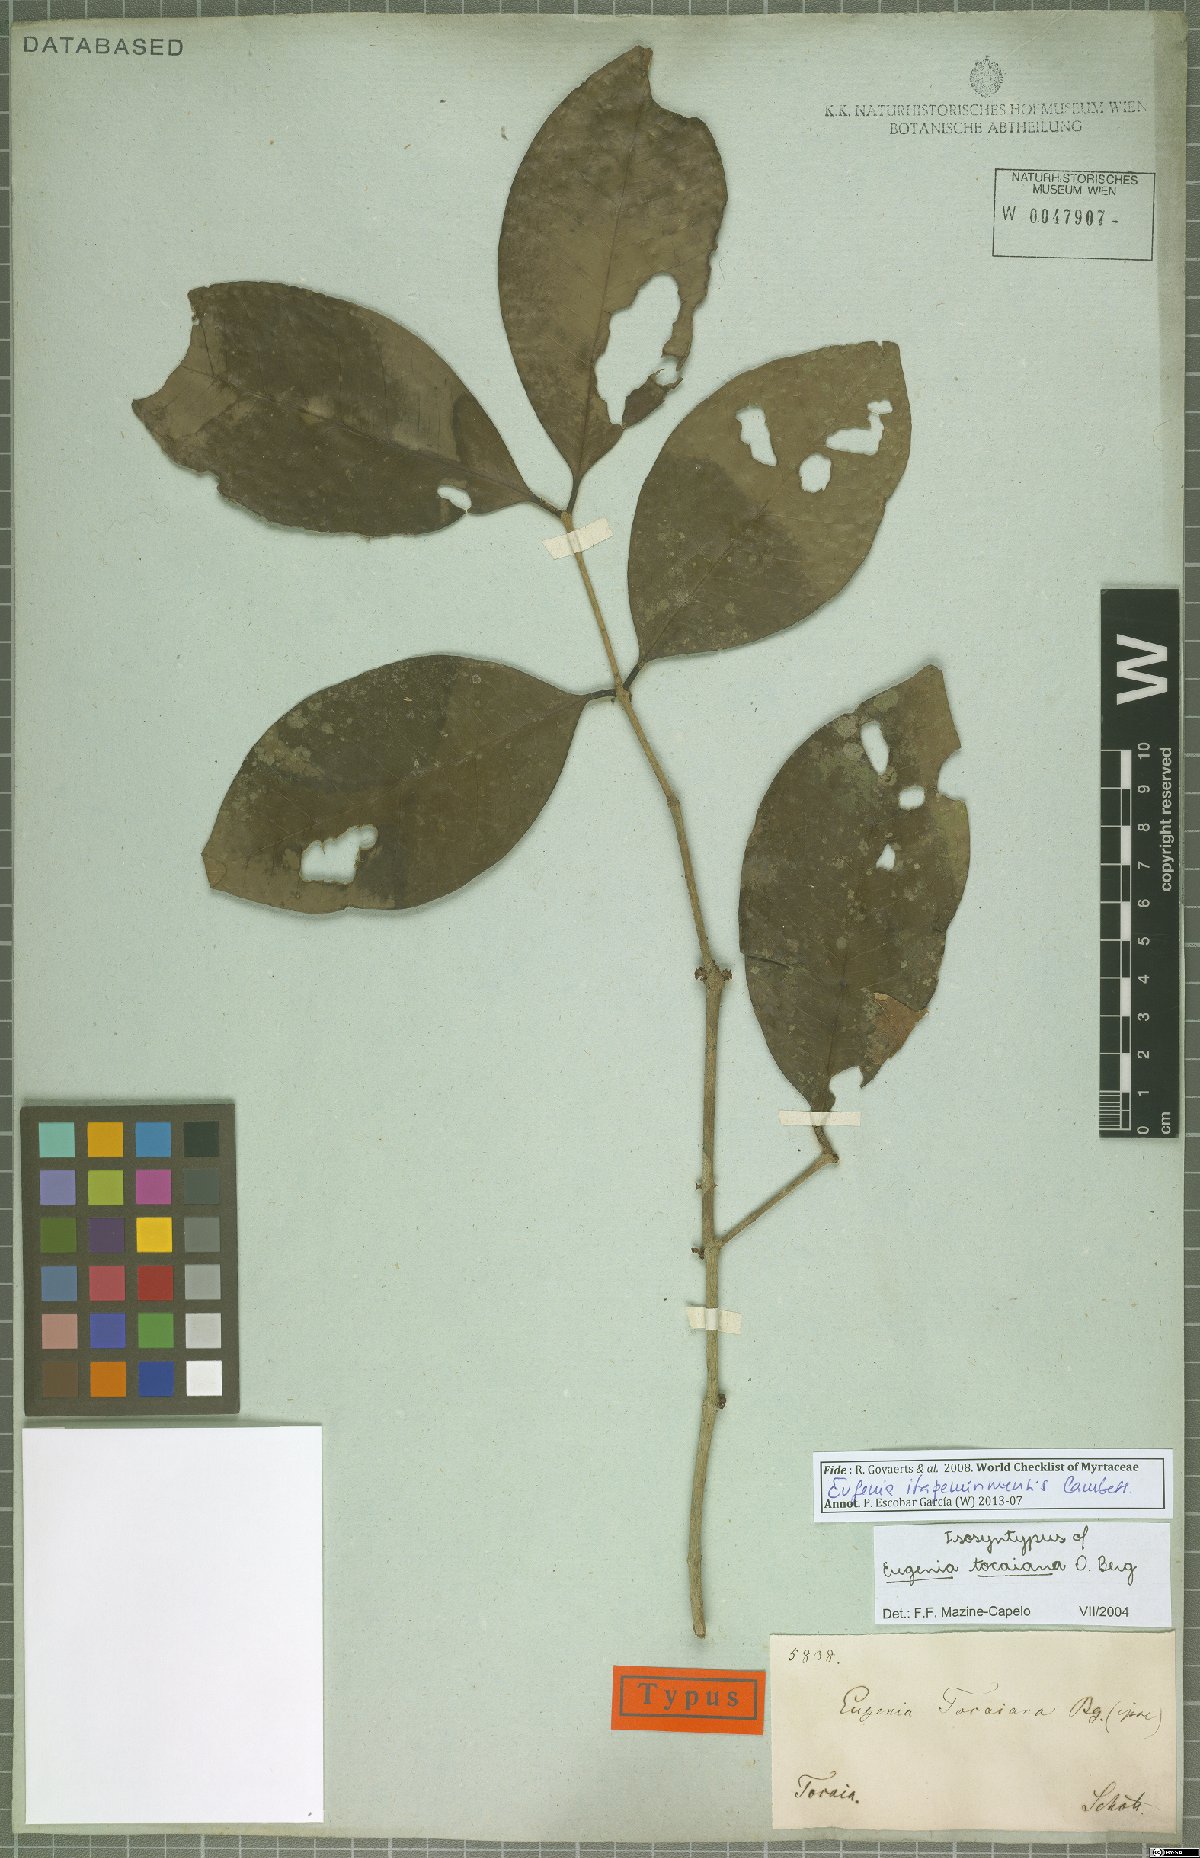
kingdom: Plantae
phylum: Tracheophyta
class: Magnoliopsida
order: Myrtales
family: Myrtaceae
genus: Eugenia
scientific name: Eugenia itapemirimensis
